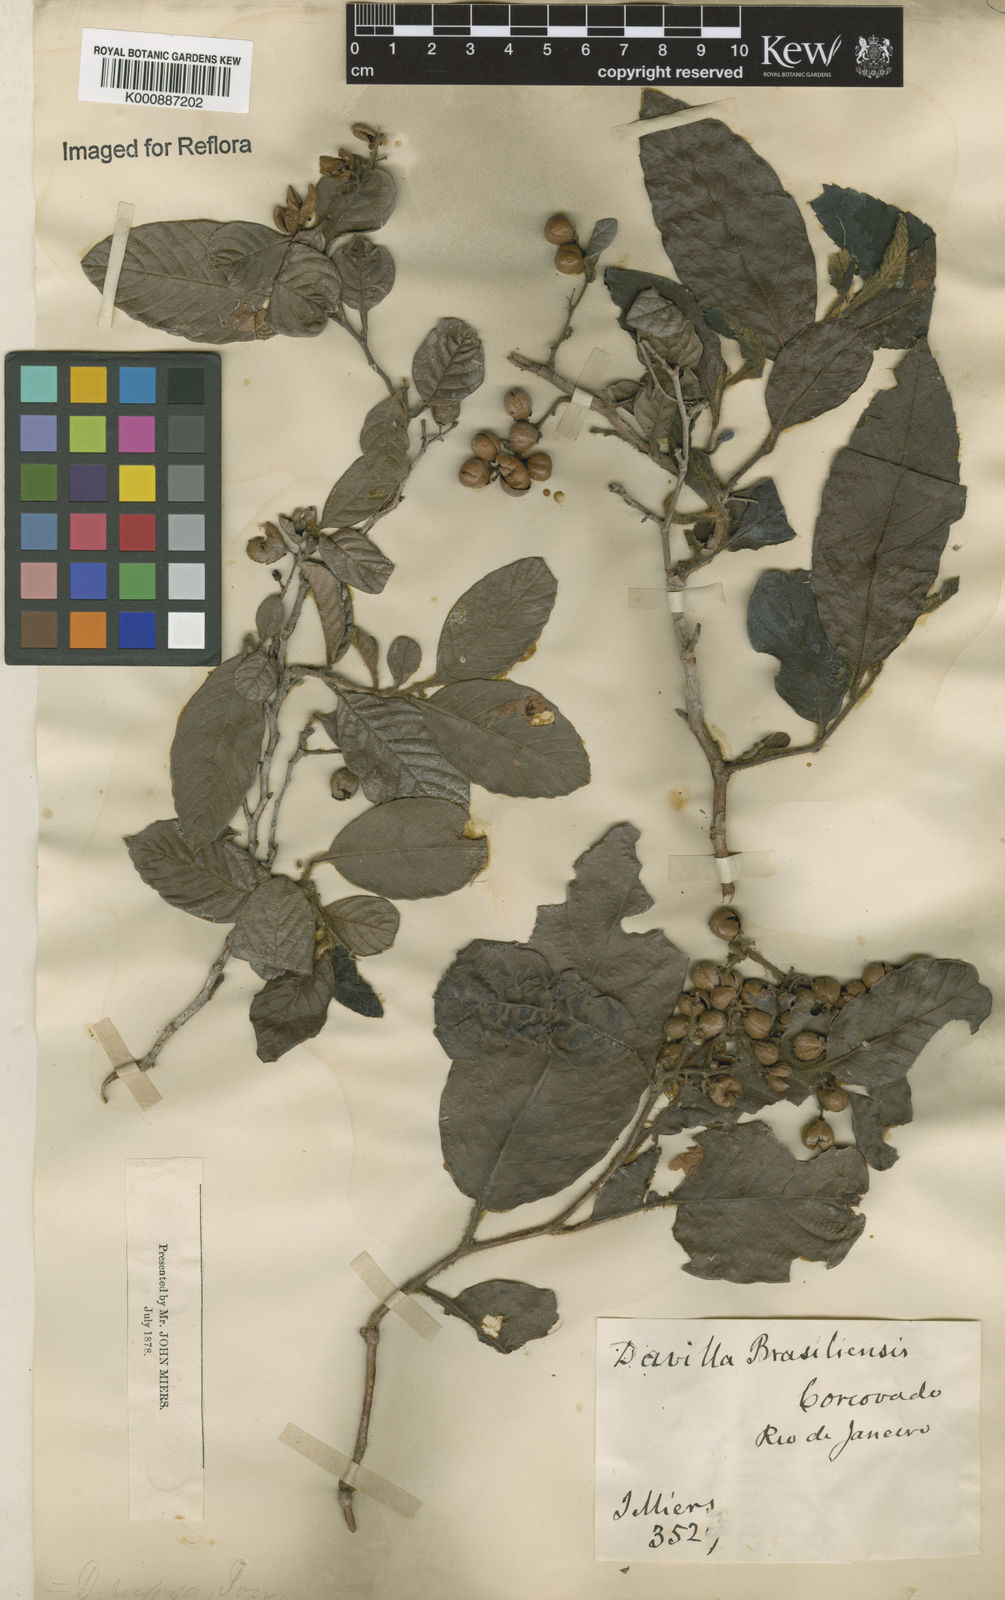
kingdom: Plantae
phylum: Tracheophyta
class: Magnoliopsida
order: Dilleniales
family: Dilleniaceae
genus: Davilla
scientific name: Davilla rugosa
